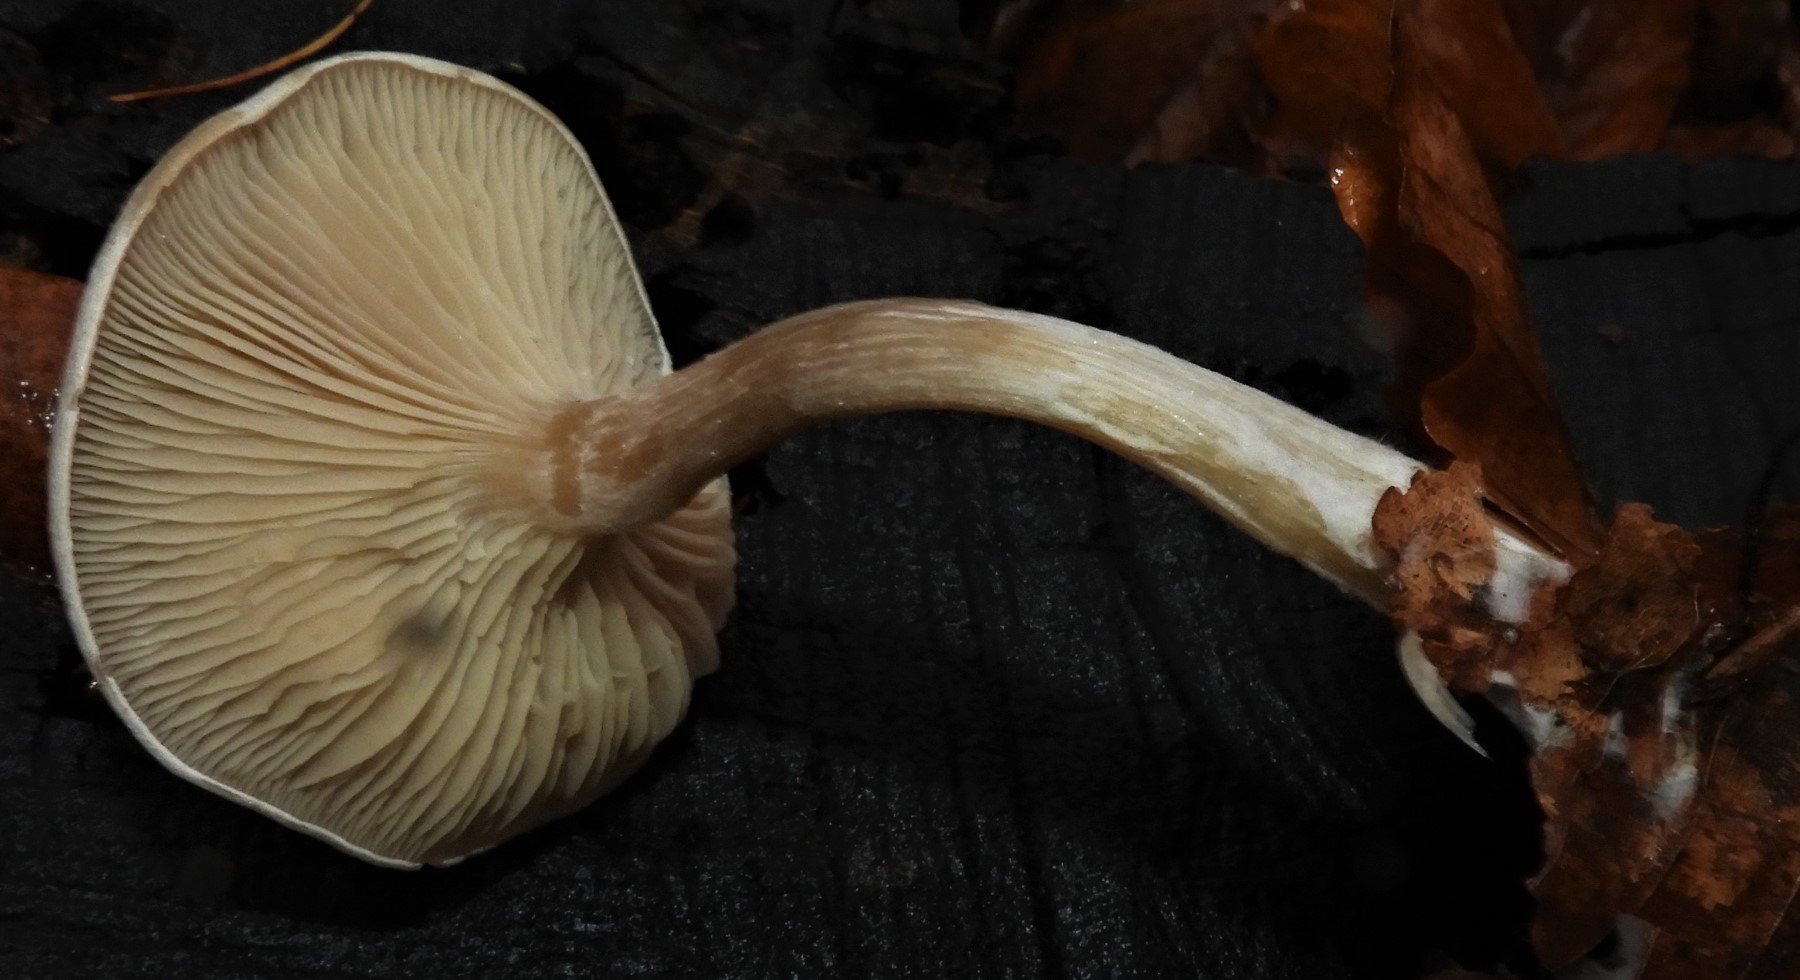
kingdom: Fungi
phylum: Basidiomycota
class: Agaricomycetes
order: Agaricales
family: Tricholomataceae
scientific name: Tricholomataceae
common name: ridderhatfamilien
